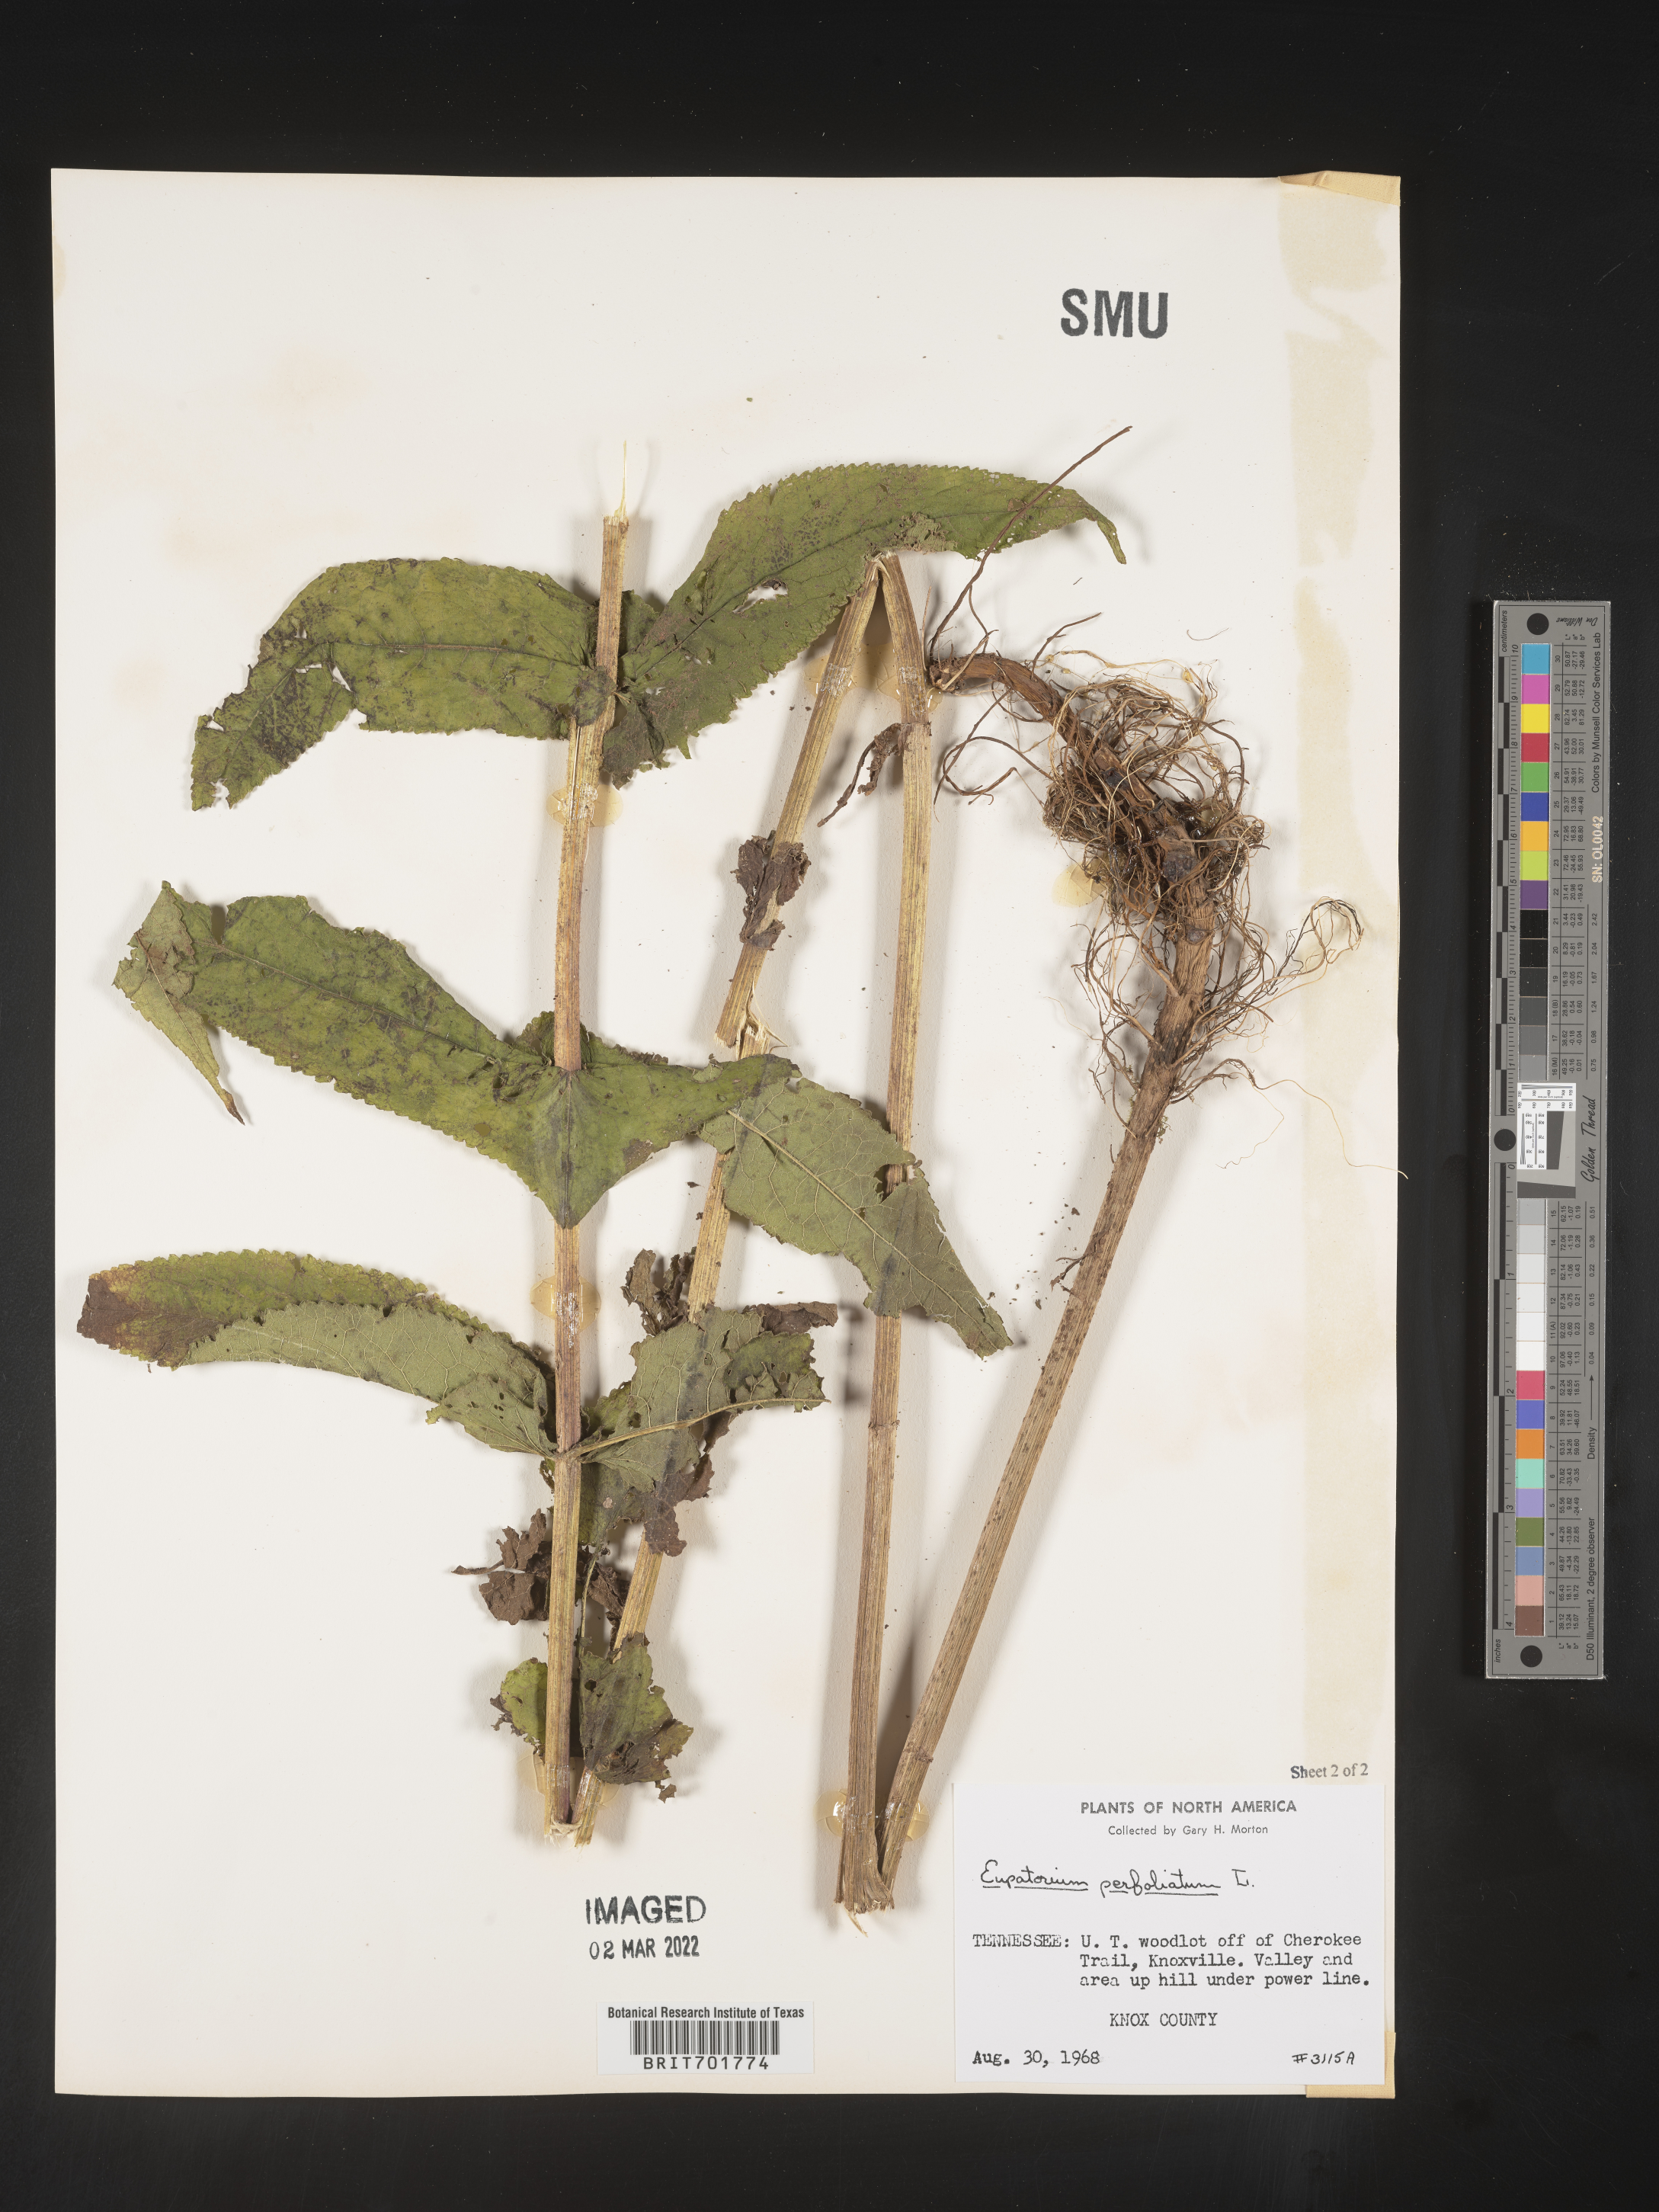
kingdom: Plantae
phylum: Tracheophyta
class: Magnoliopsida
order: Asterales
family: Asteraceae
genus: Eupatorium
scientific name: Eupatorium perfoliatum
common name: Boneset
